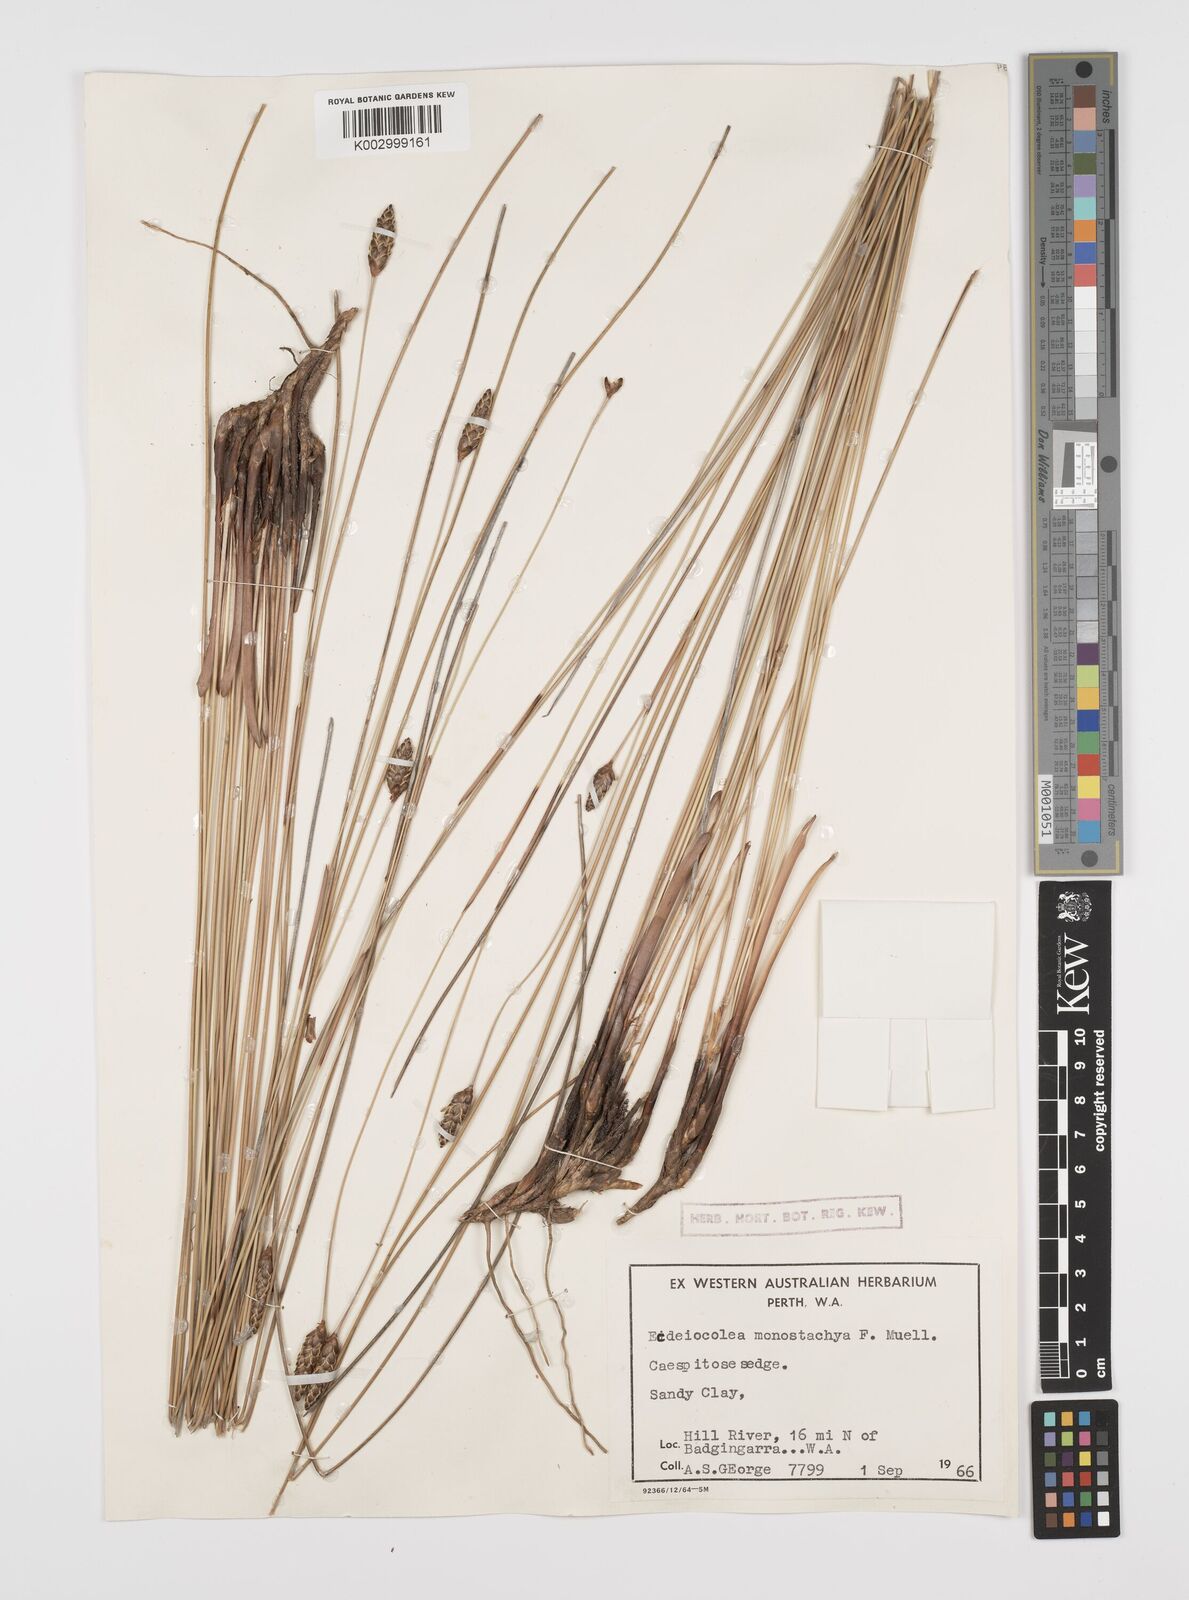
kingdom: Plantae
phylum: Tracheophyta
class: Liliopsida
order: Poales
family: Ecdeiocoleaceae
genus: Ecdeiocolea
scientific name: Ecdeiocolea monostachya
